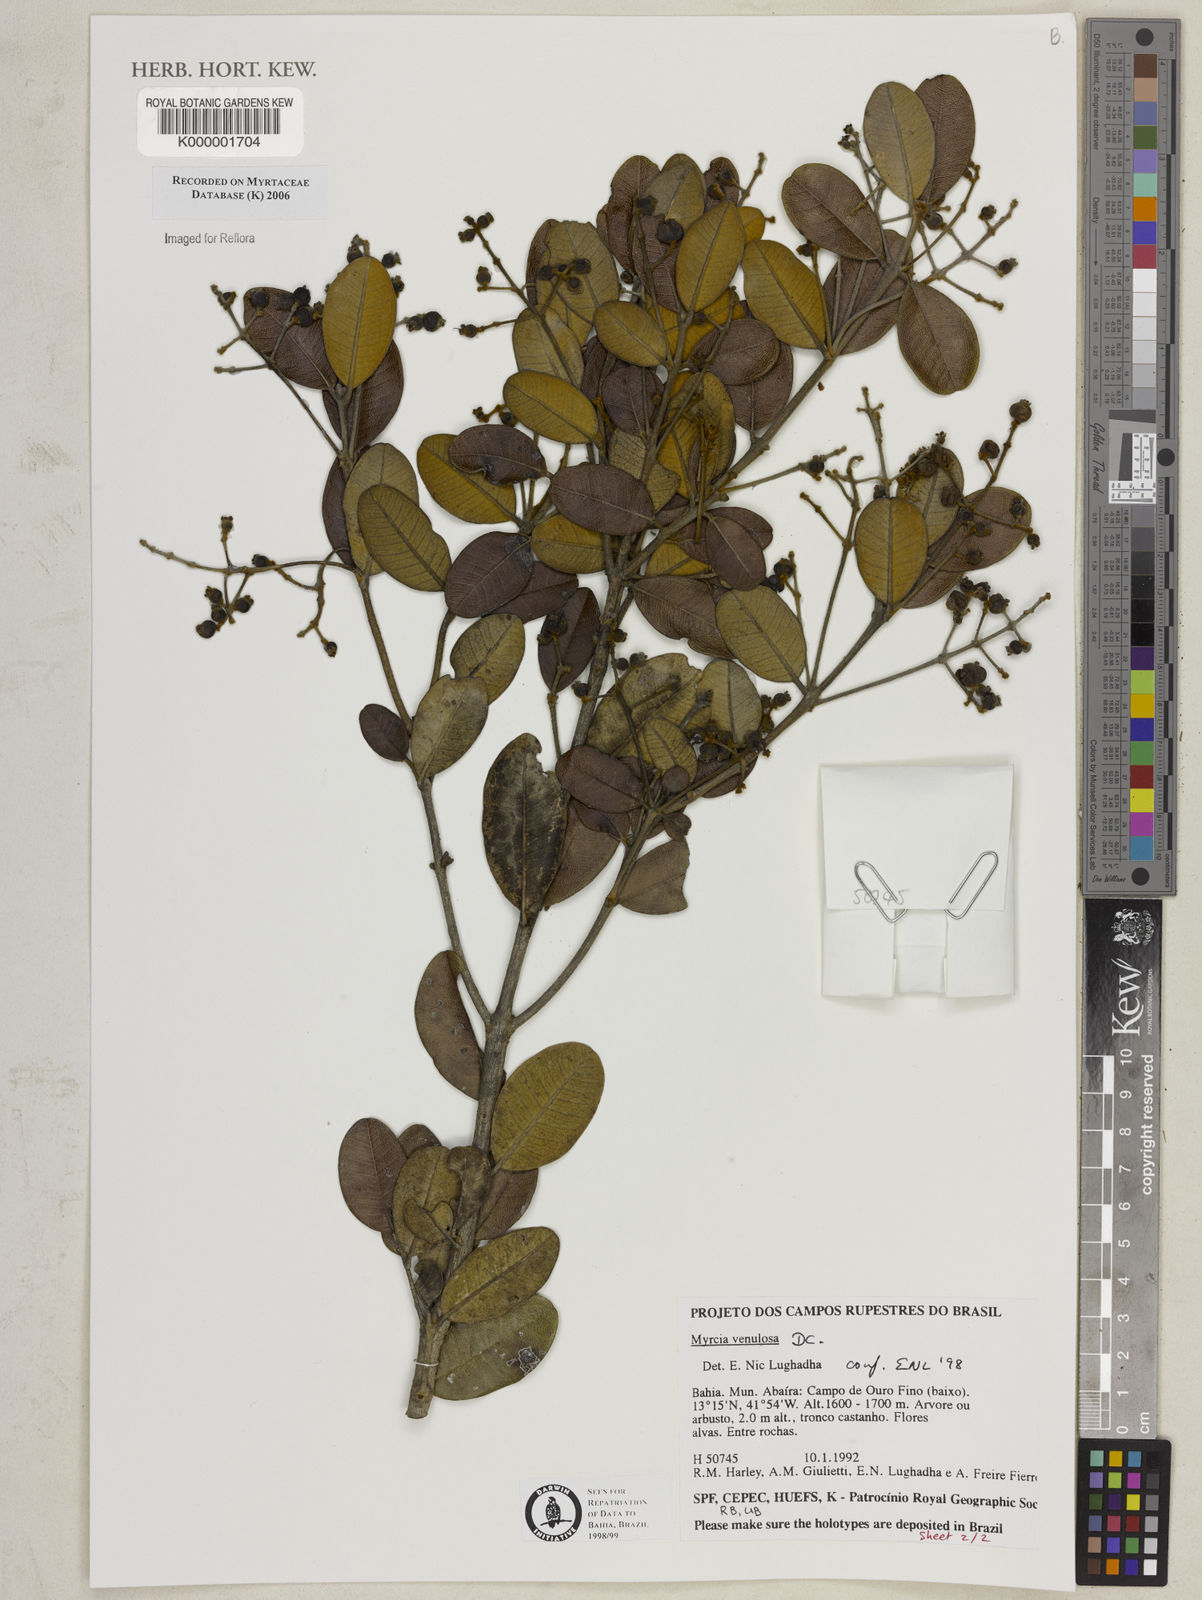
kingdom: Plantae
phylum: Tracheophyta
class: Magnoliopsida
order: Myrtales
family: Myrtaceae
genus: Myrcia
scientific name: Myrcia venulosa
